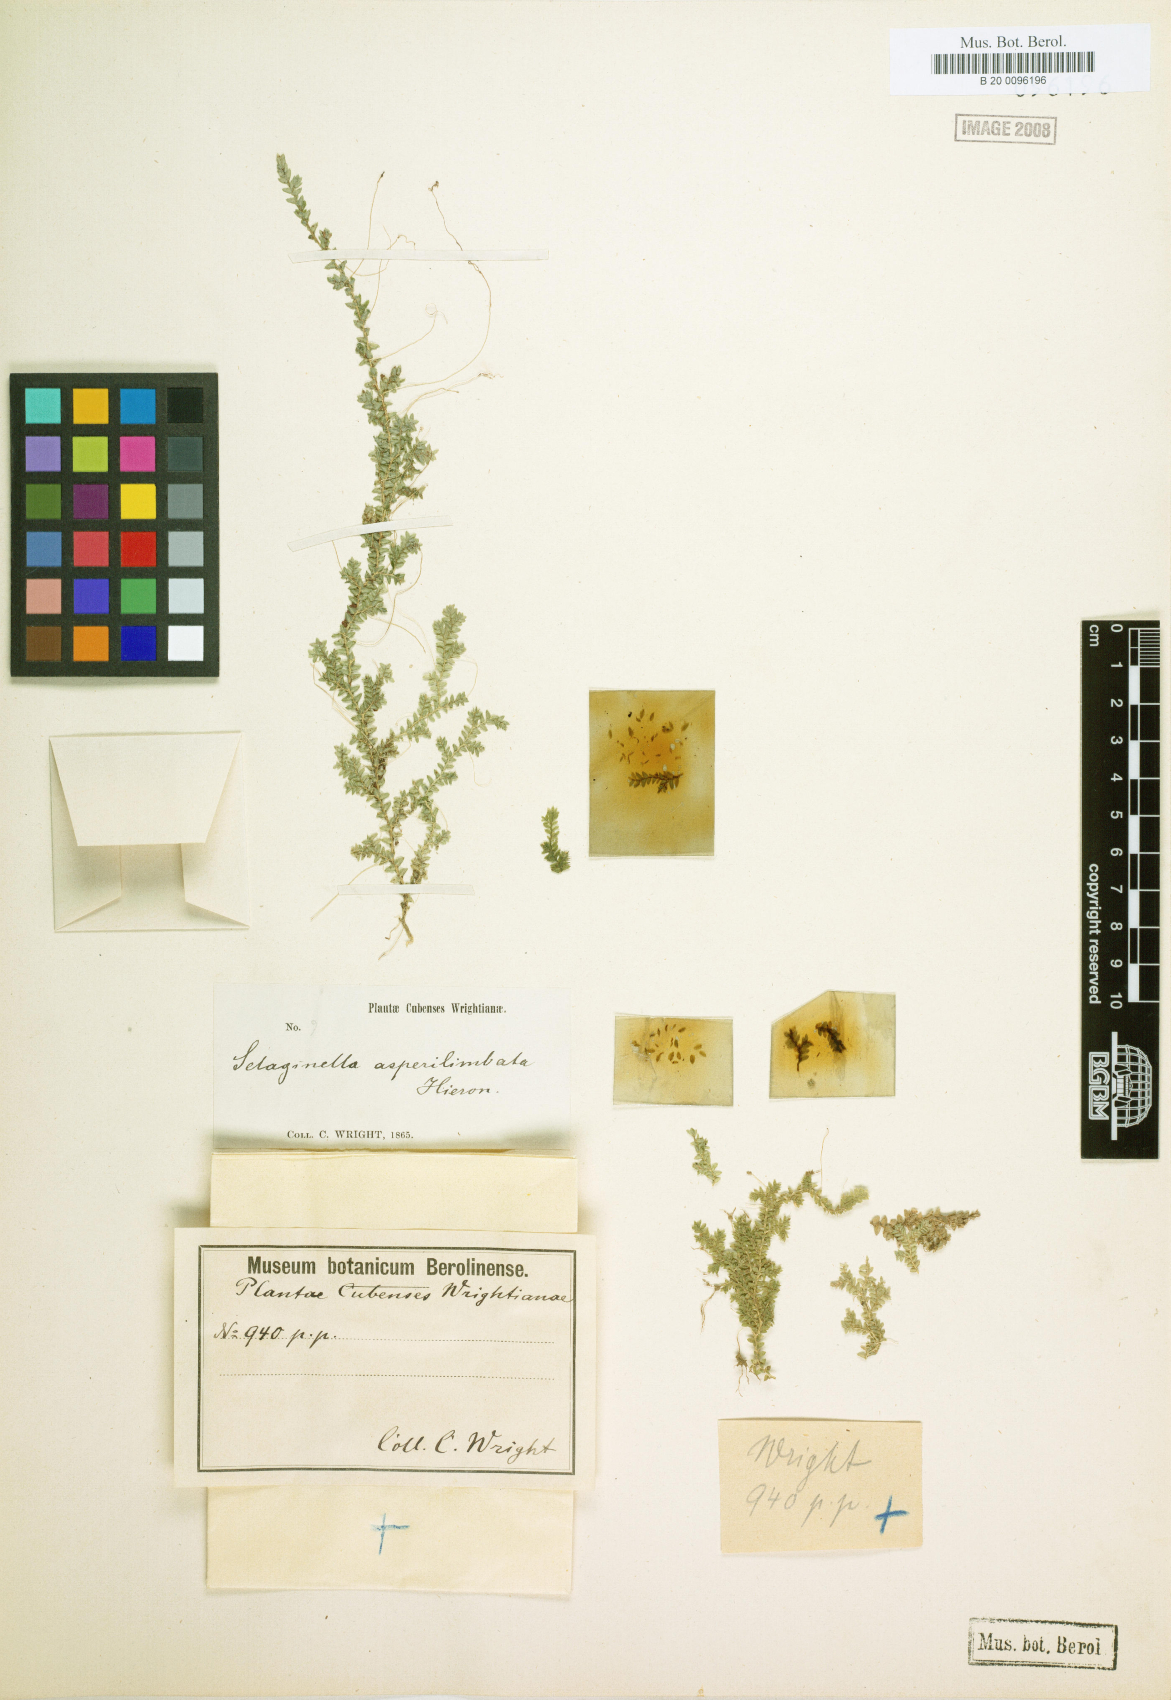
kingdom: Plantae
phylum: Tracheophyta
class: Lycopodiopsida
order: Selaginellales
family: Selaginellaceae
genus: Selaginella
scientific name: Selaginella urquiolae
